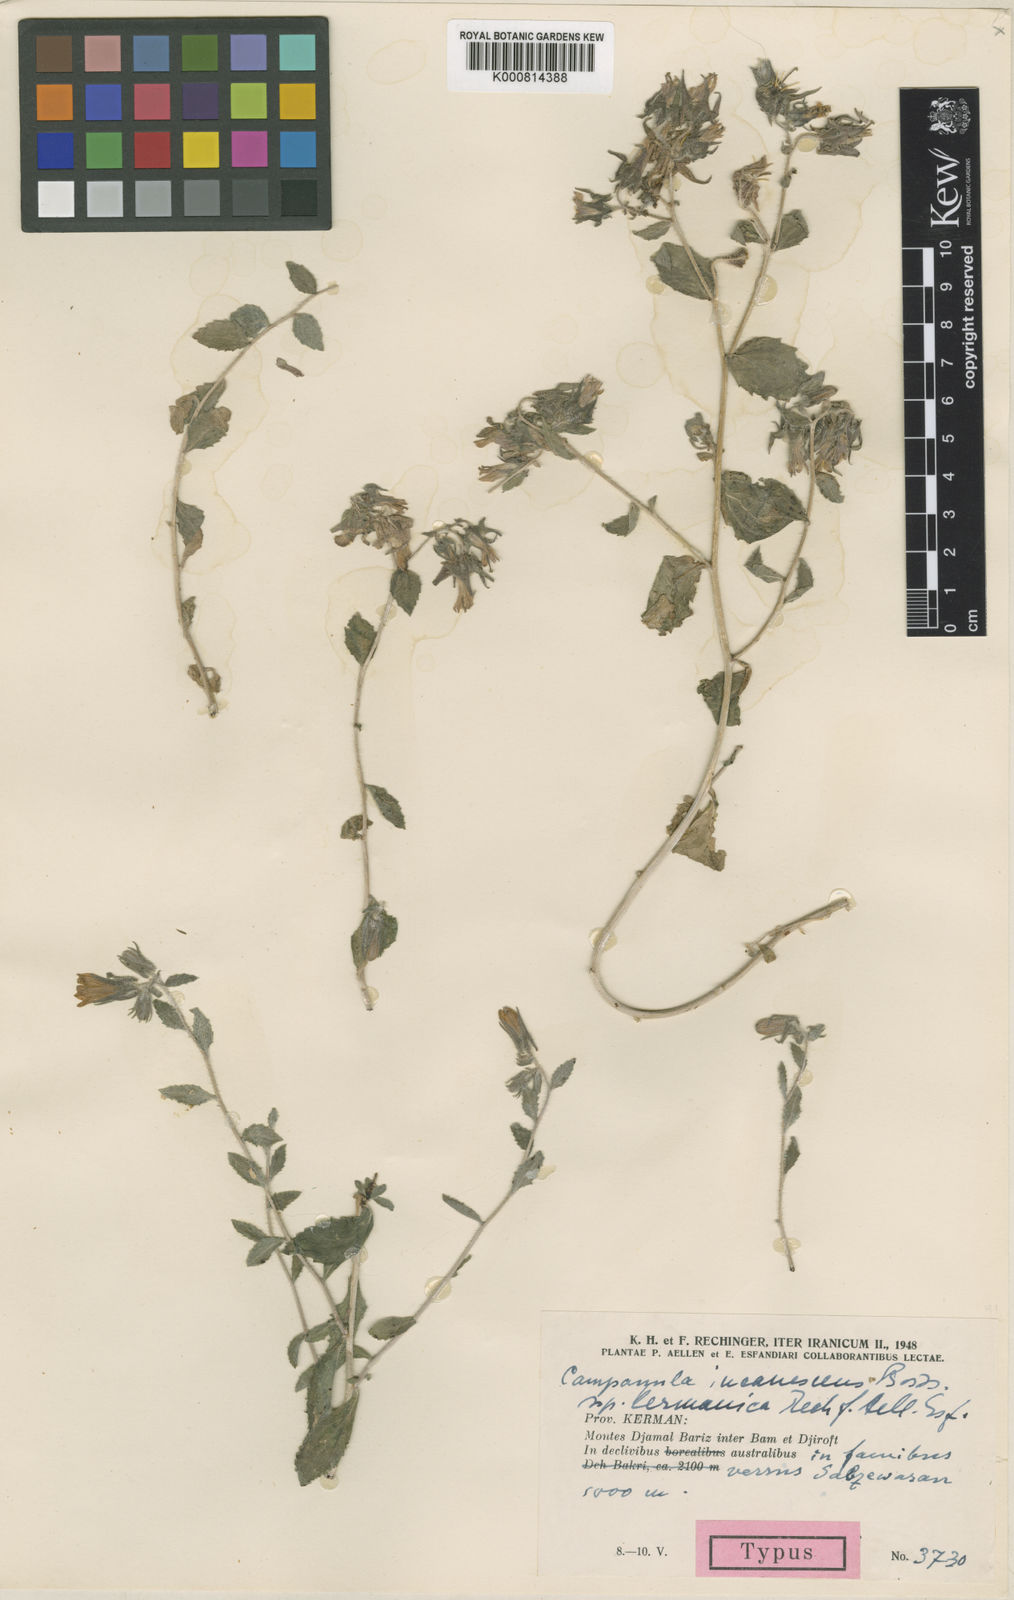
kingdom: Plantae
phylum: Tracheophyta
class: Magnoliopsida
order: Asterales
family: Campanulaceae
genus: Campanula
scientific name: Campanula incanescens
